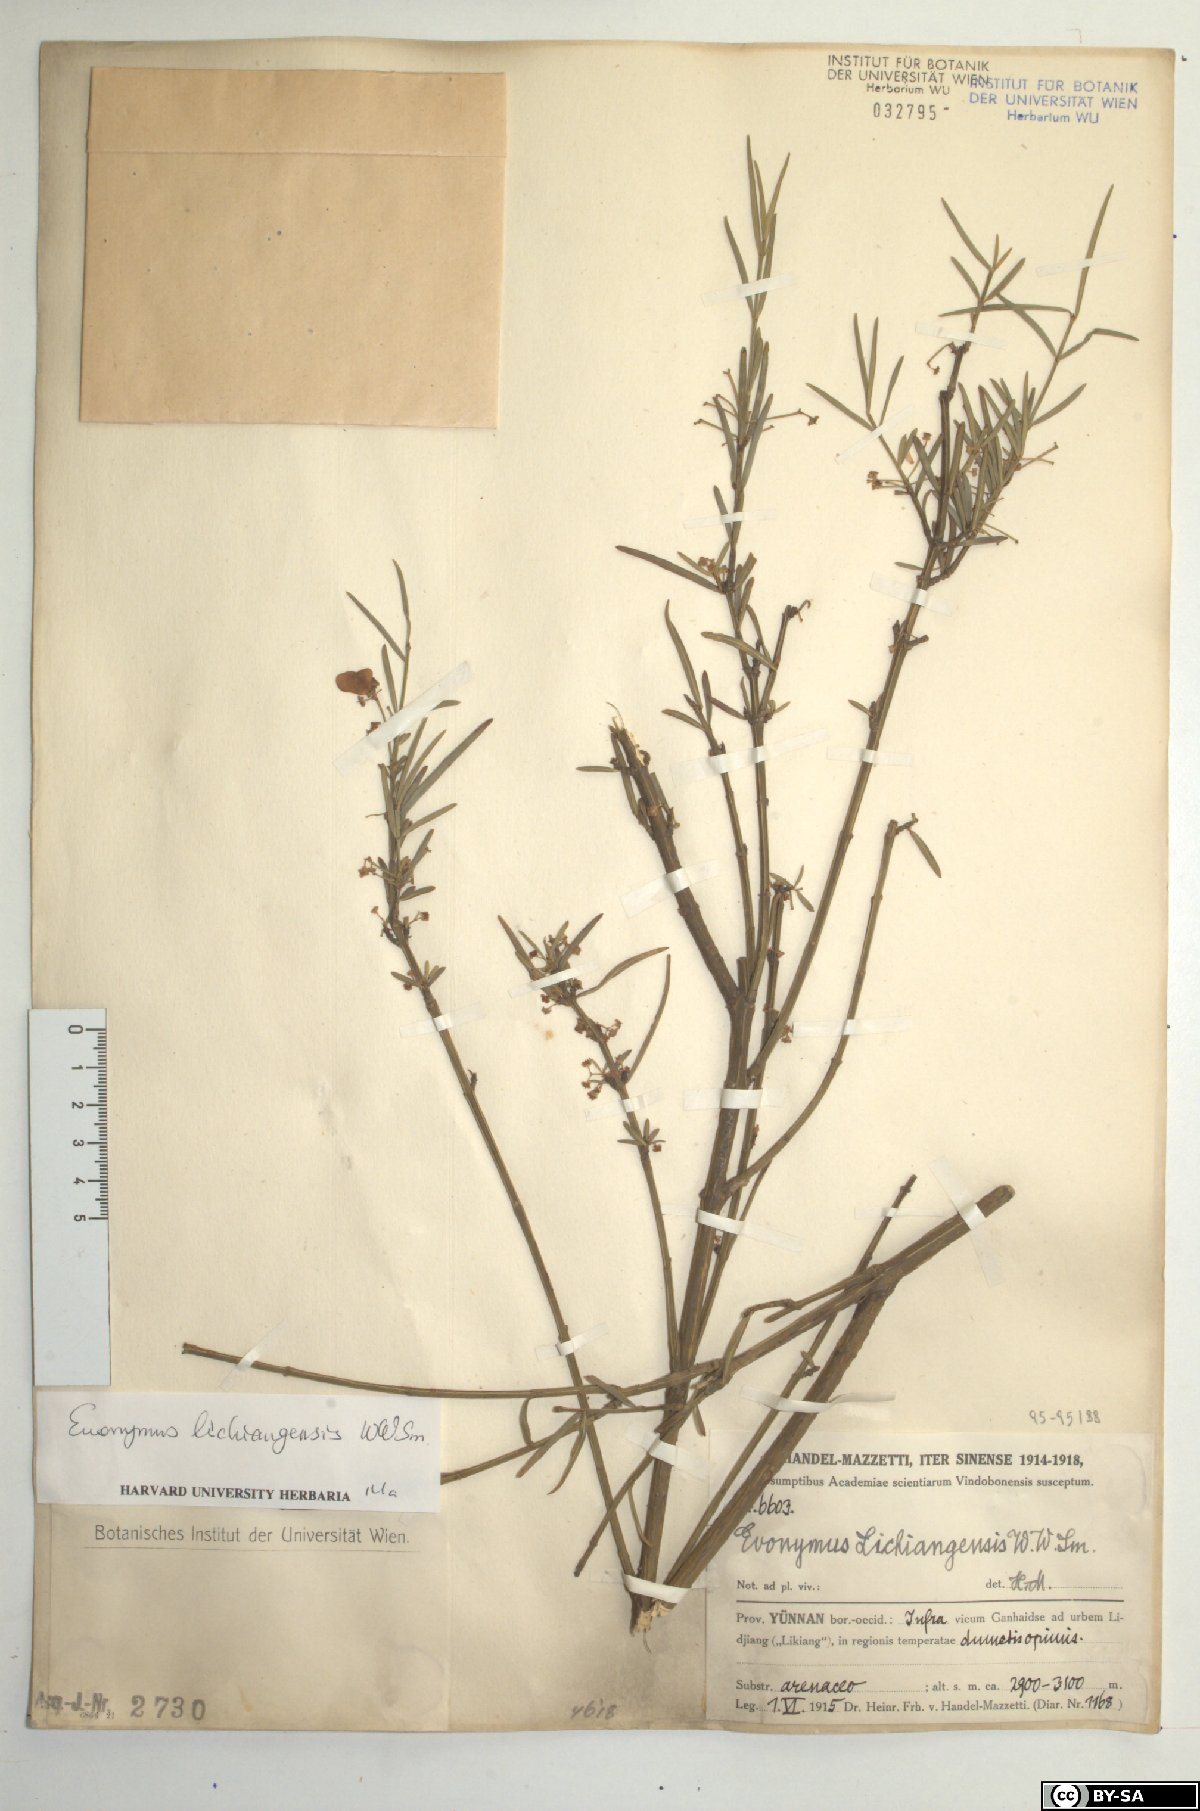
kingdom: Plantae
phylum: Tracheophyta
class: Magnoliopsida
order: Celastrales
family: Celastraceae
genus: Euonymus
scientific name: Euonymus lichiangensis
